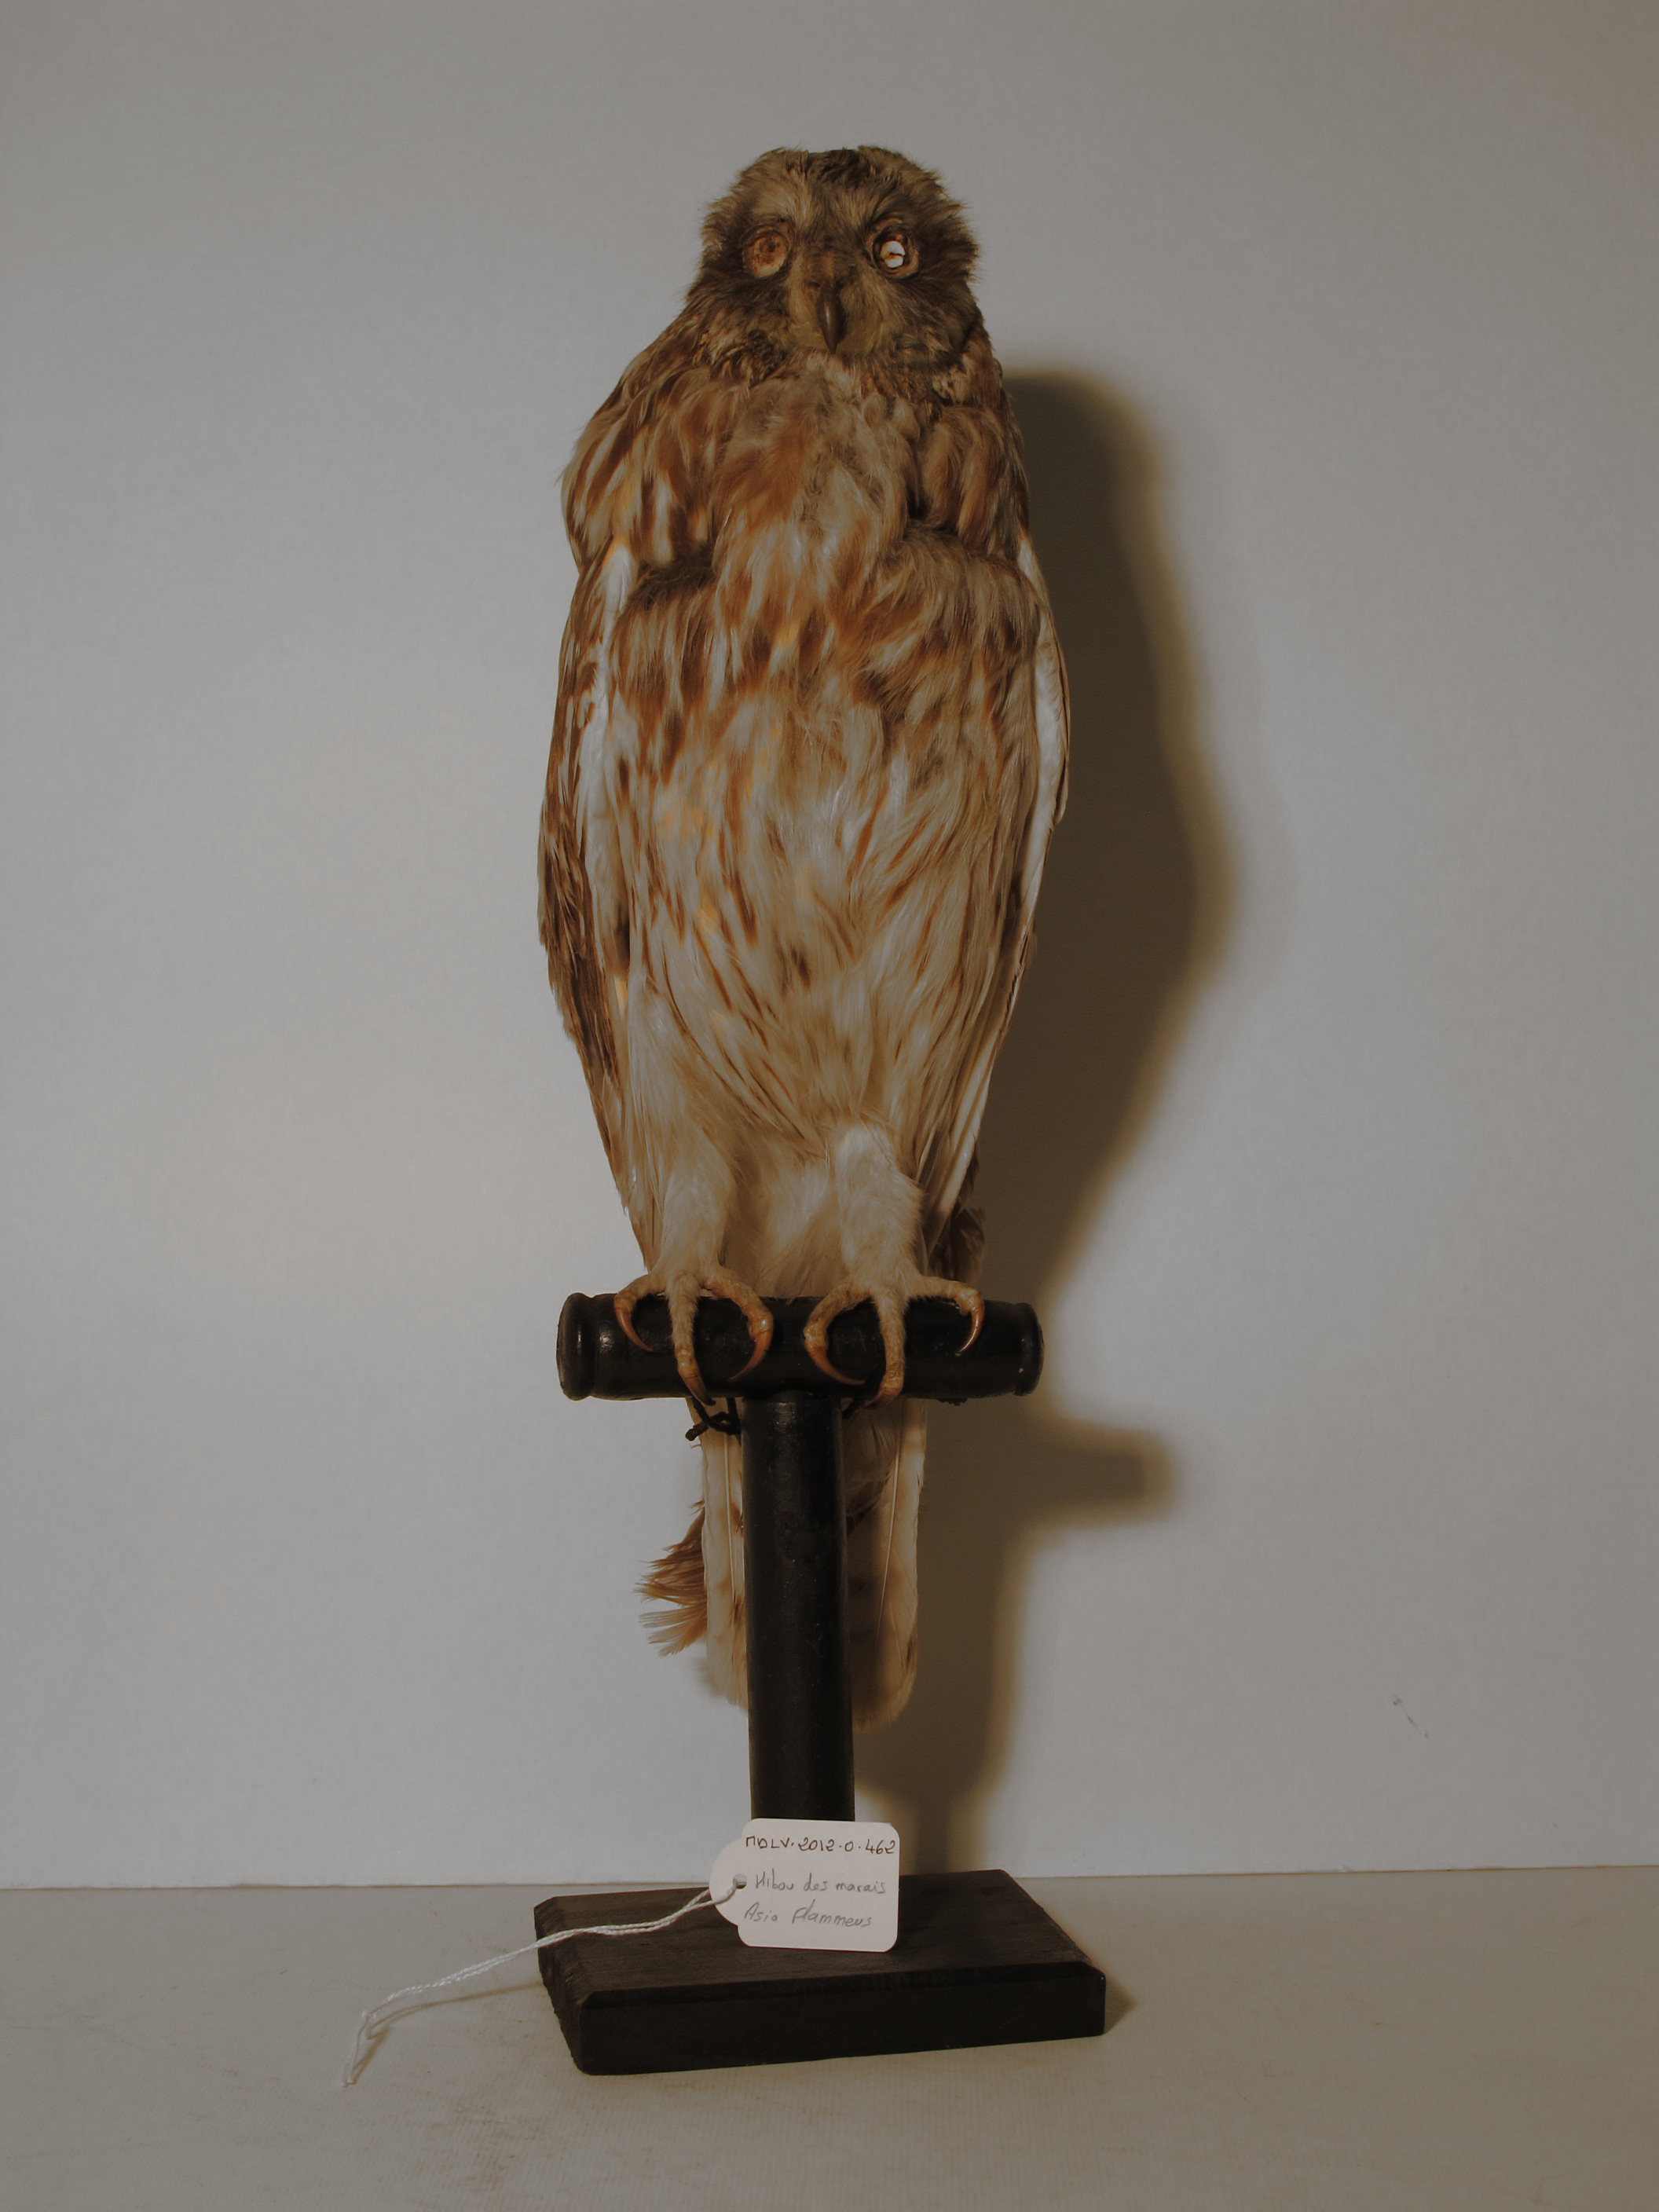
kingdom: Animalia
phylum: Chordata
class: Aves
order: Strigiformes
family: Strigidae
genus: Asio
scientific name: Asio flammeus
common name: Short-eared Owl
